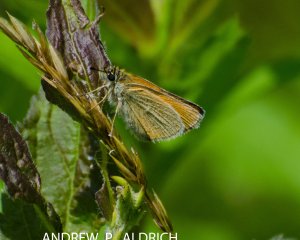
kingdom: Animalia
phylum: Arthropoda
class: Insecta
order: Lepidoptera
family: Hesperiidae
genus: Thymelicus
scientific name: Thymelicus lineola
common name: European Skipper
